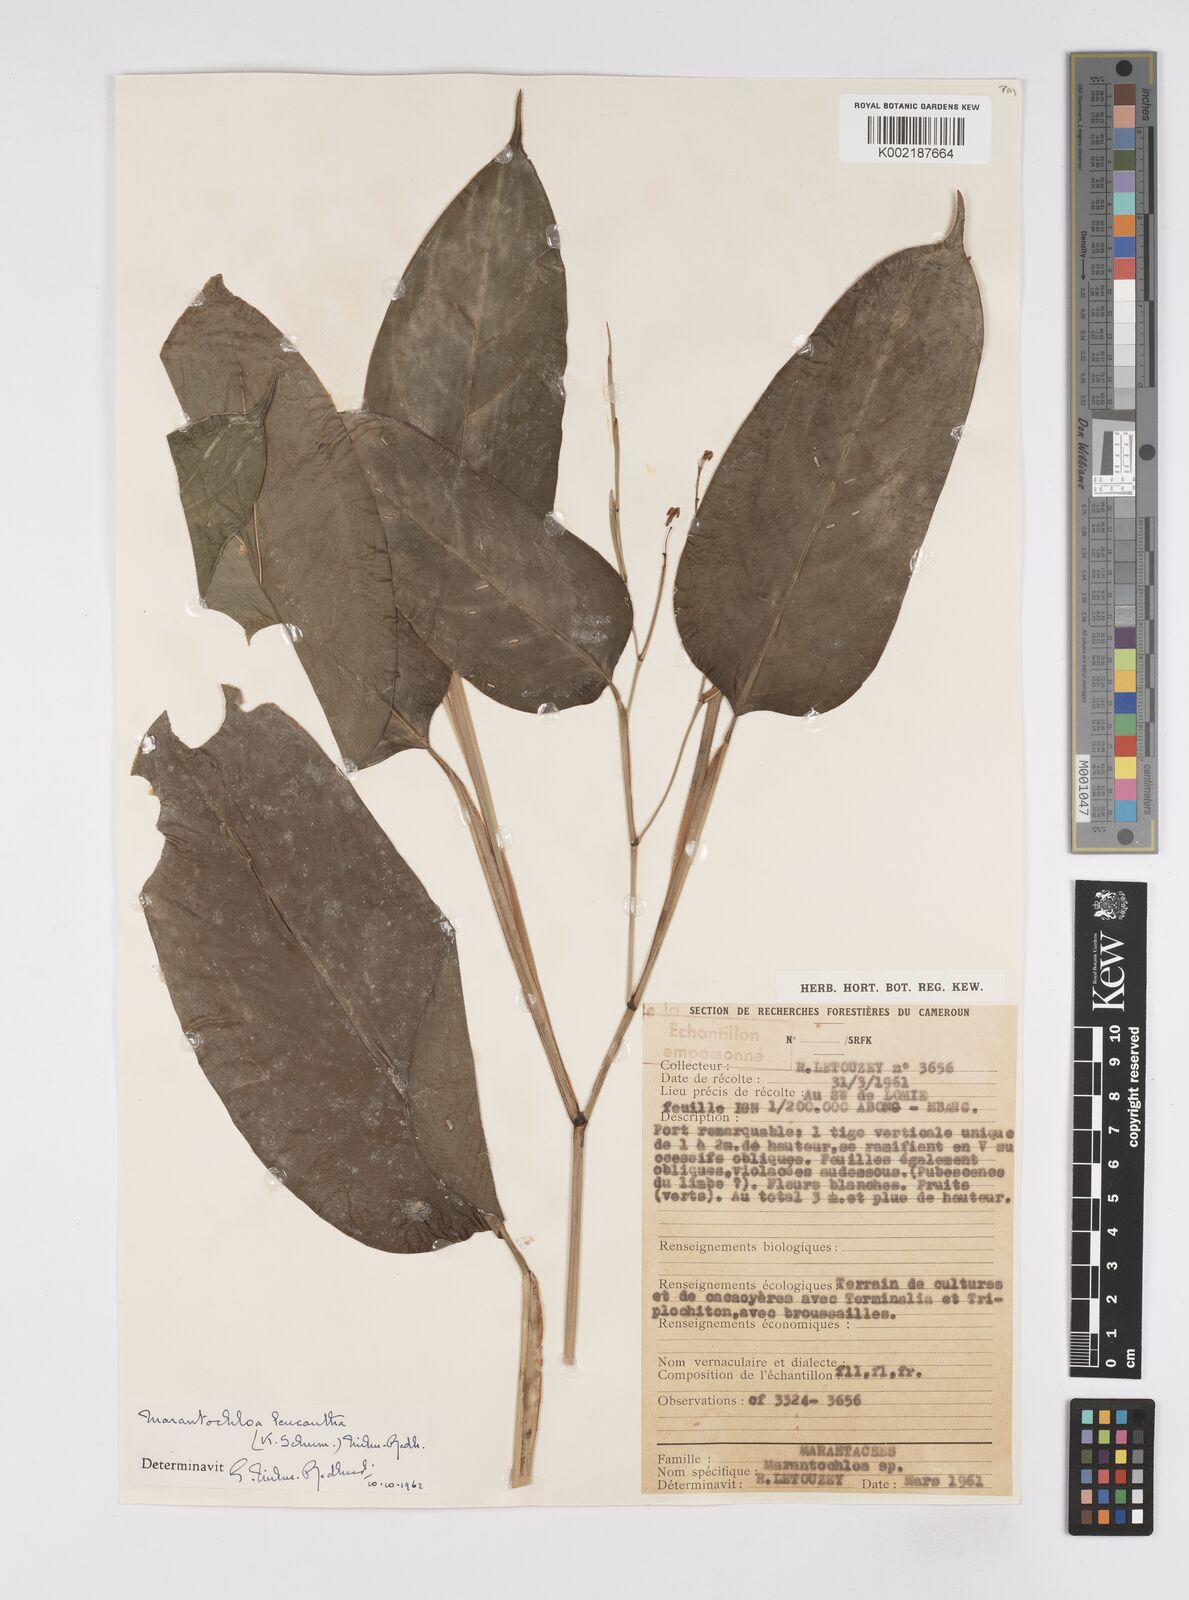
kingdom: Plantae
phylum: Tracheophyta
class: Liliopsida
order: Zingiberales
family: Marantaceae
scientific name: Marantaceae
